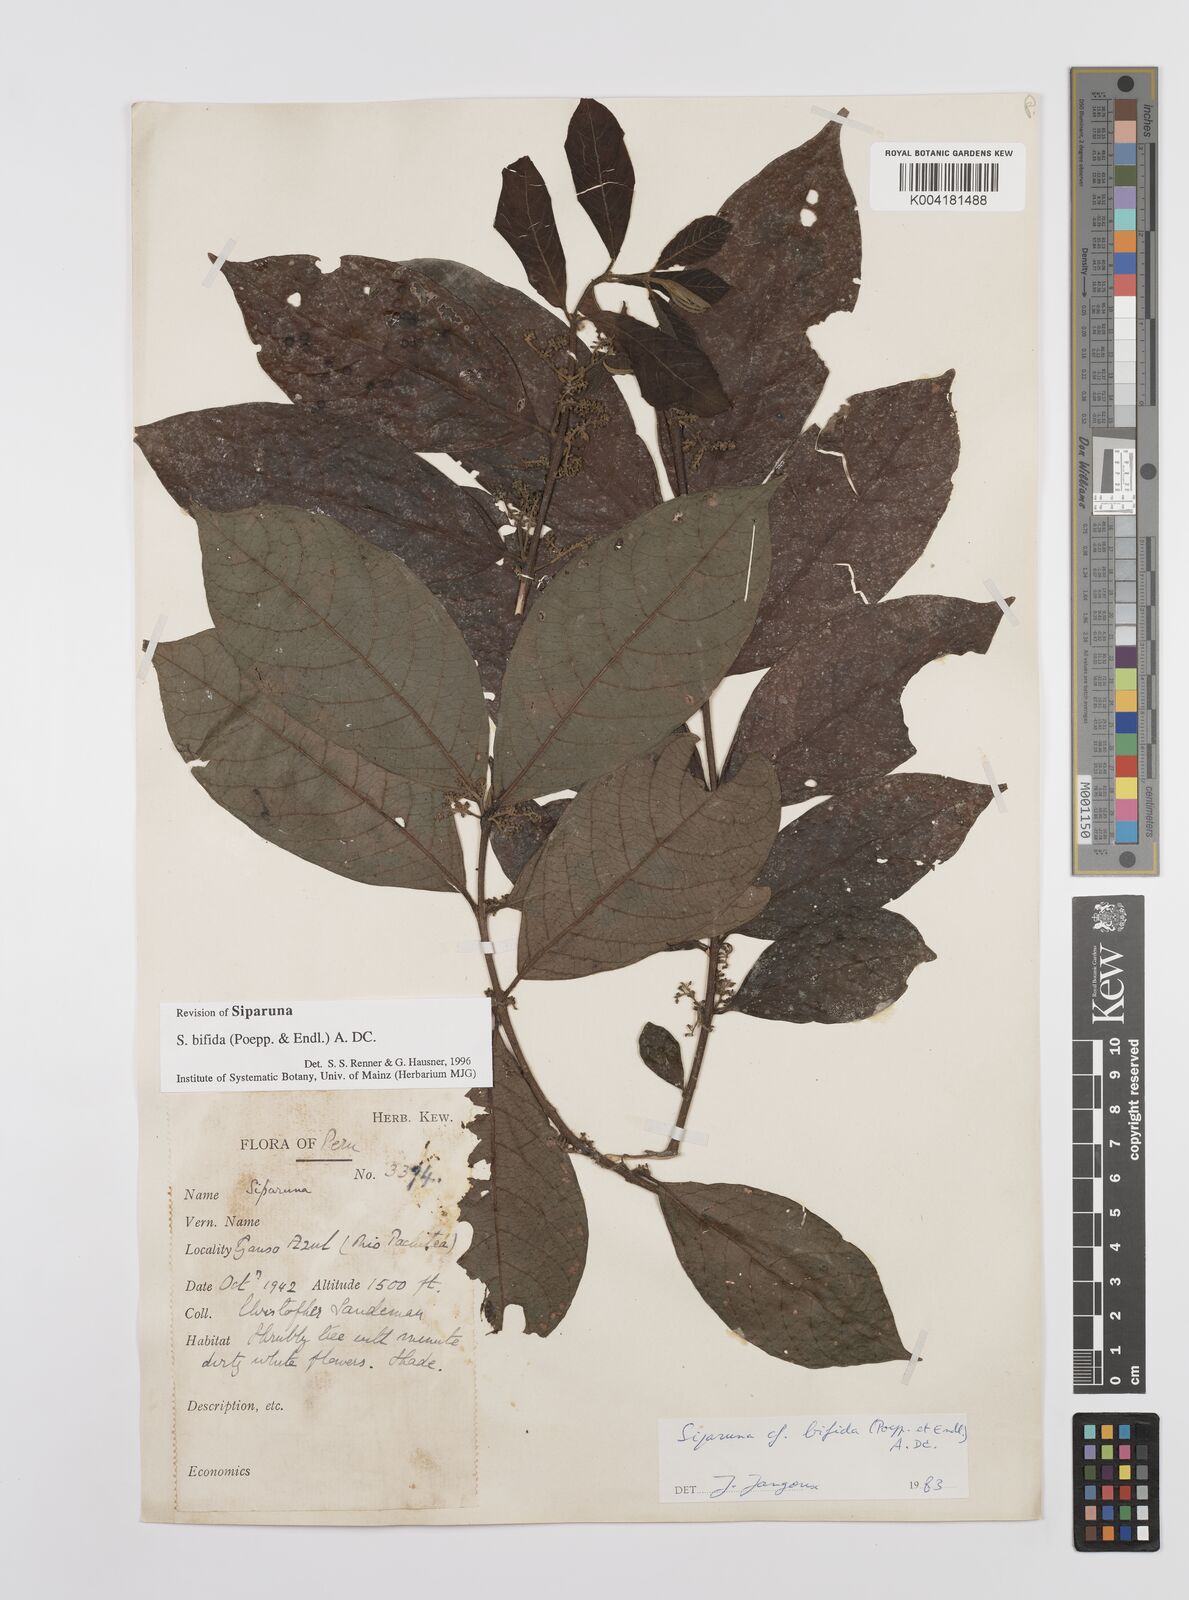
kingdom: Plantae
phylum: Tracheophyta
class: Magnoliopsida
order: Laurales
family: Siparunaceae
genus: Siparuna
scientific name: Siparuna bifida
